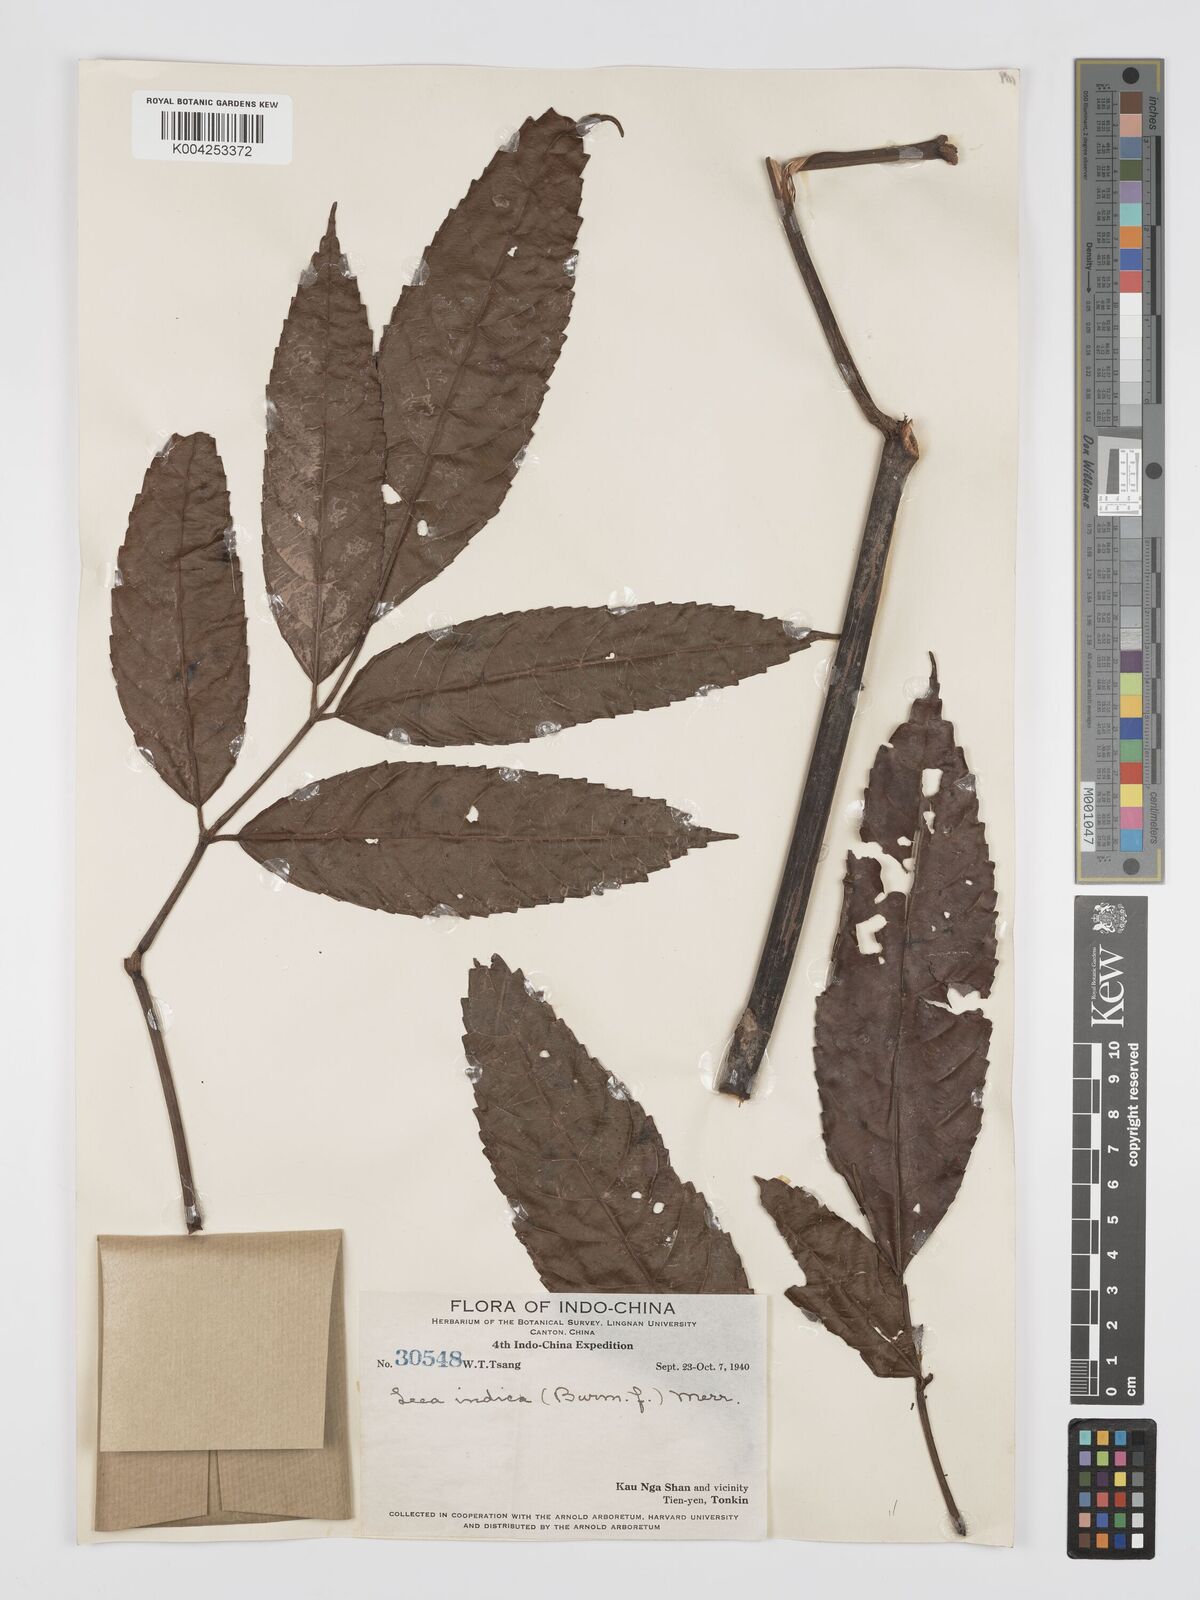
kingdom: Plantae
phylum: Tracheophyta
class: Magnoliopsida
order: Vitales
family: Vitaceae
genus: Leea
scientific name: Leea indica
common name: Bandicoot-berry
